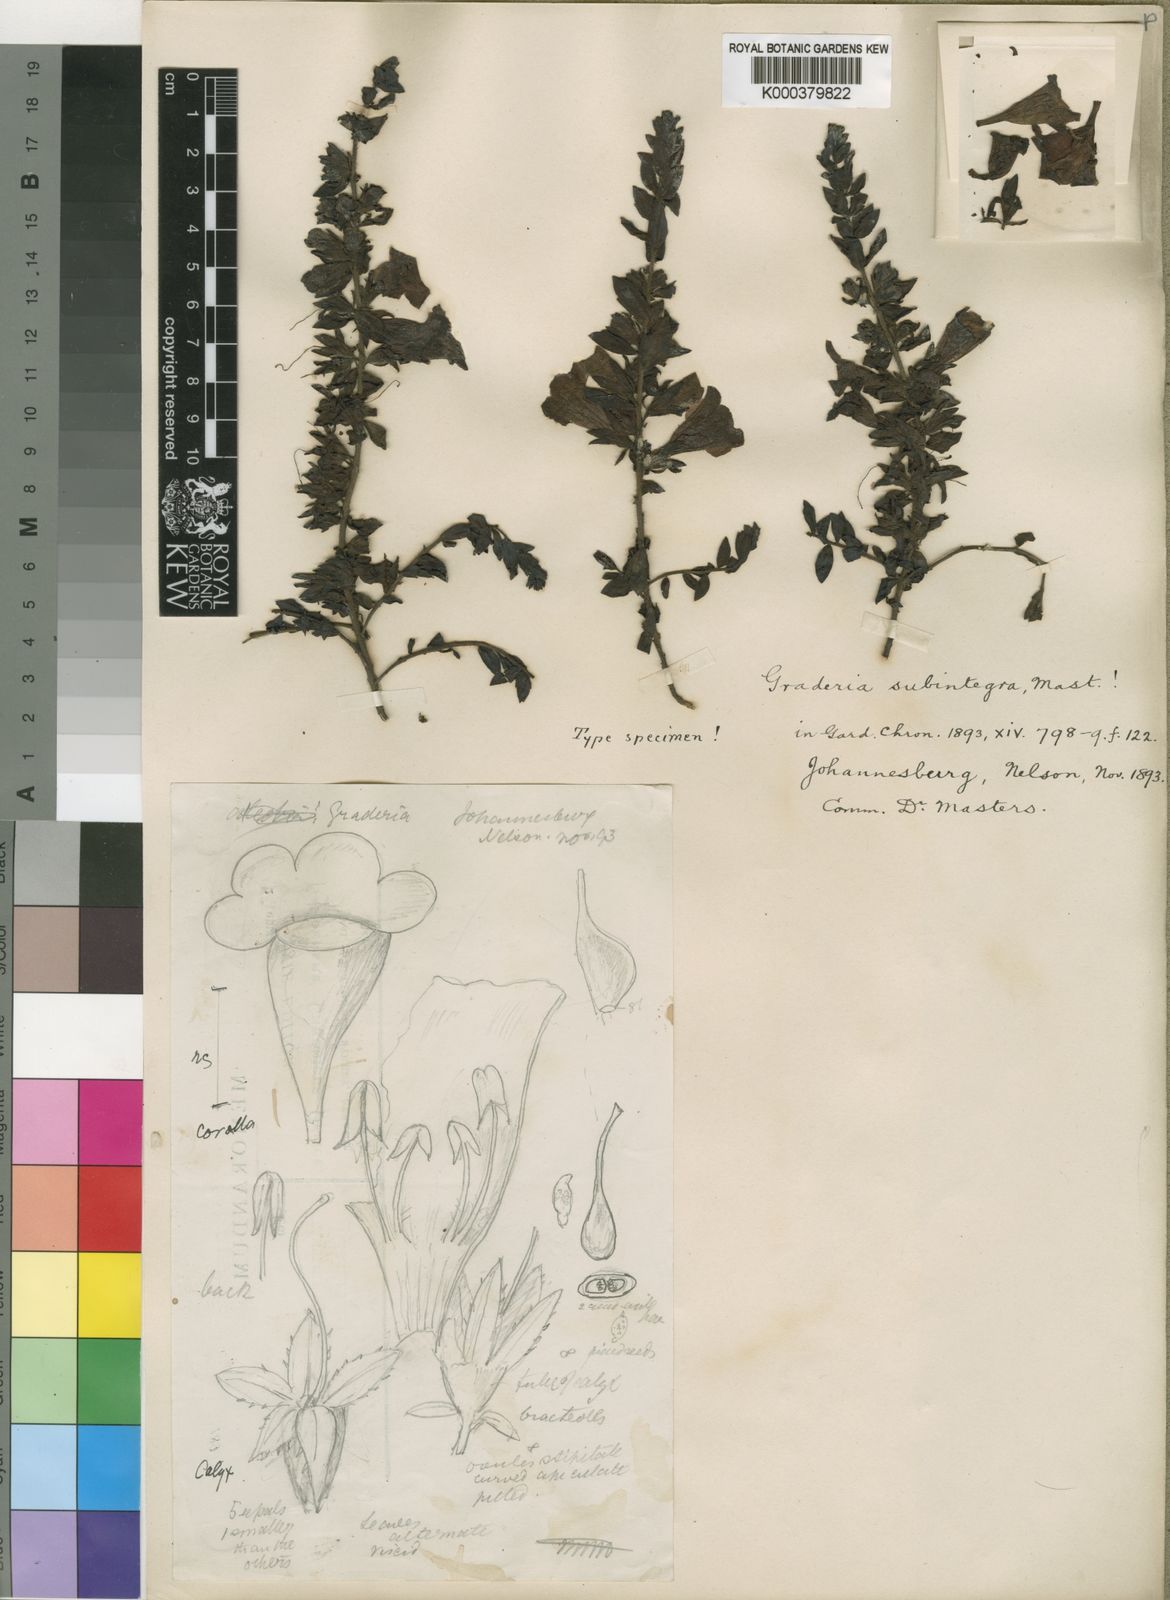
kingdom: Plantae
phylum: Tracheophyta
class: Magnoliopsida
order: Lamiales
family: Orobanchaceae
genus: Graderia
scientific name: Graderia subintegra
